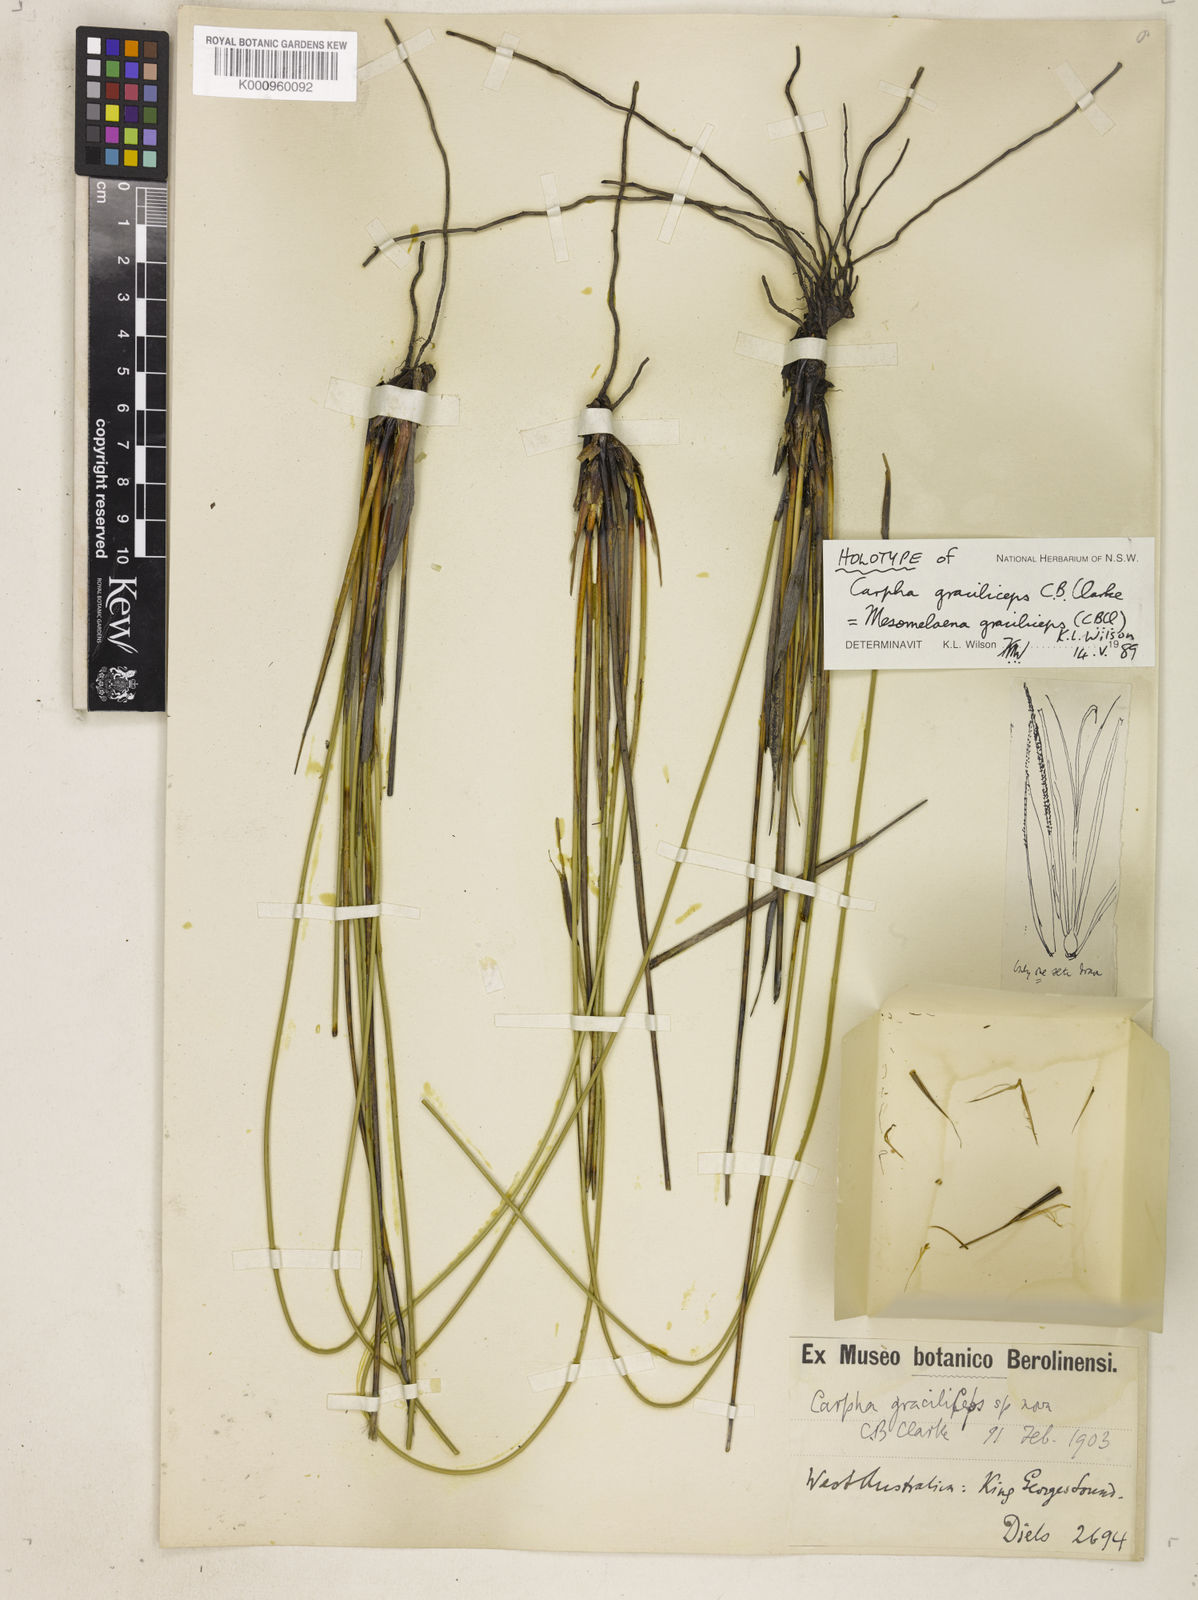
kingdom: Plantae
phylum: Tracheophyta
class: Liliopsida
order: Poales
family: Cyperaceae
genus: Mesomelaena
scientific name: Mesomelaena graciliceps
